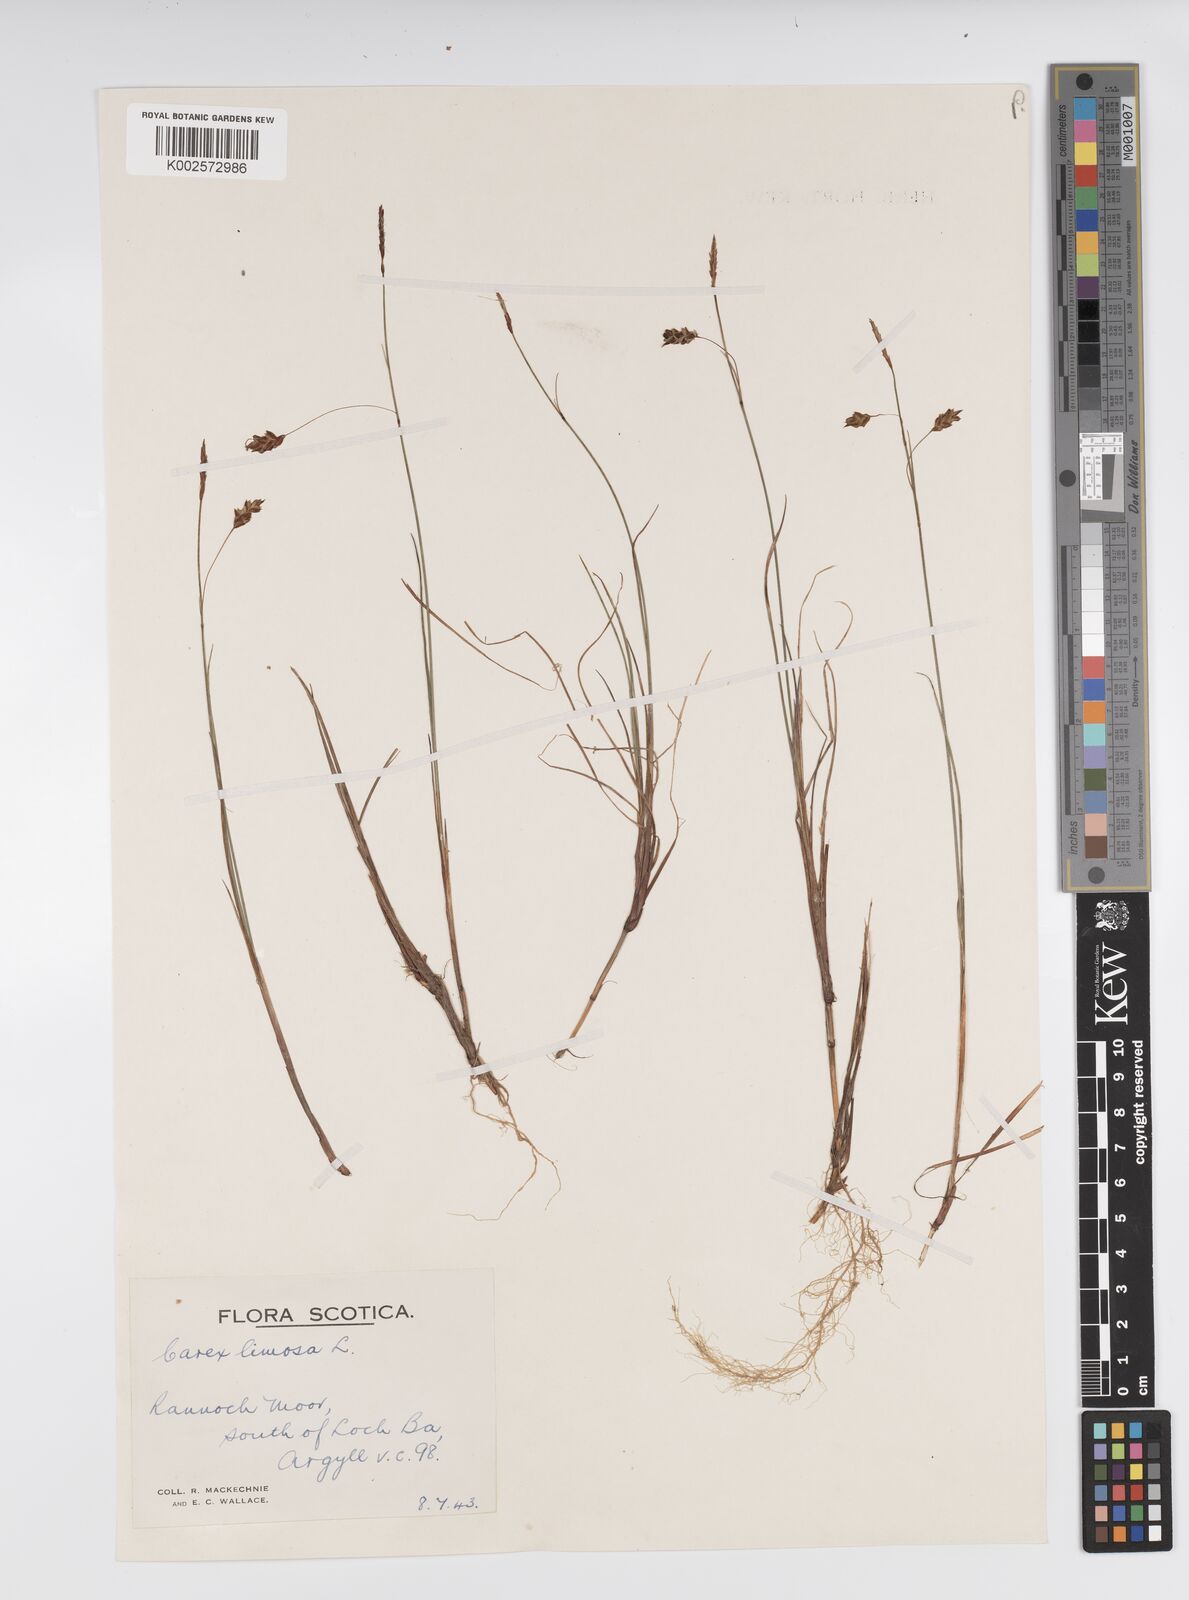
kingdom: Plantae
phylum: Tracheophyta
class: Liliopsida
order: Poales
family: Cyperaceae
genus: Carex
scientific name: Carex limosa
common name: Bog sedge
